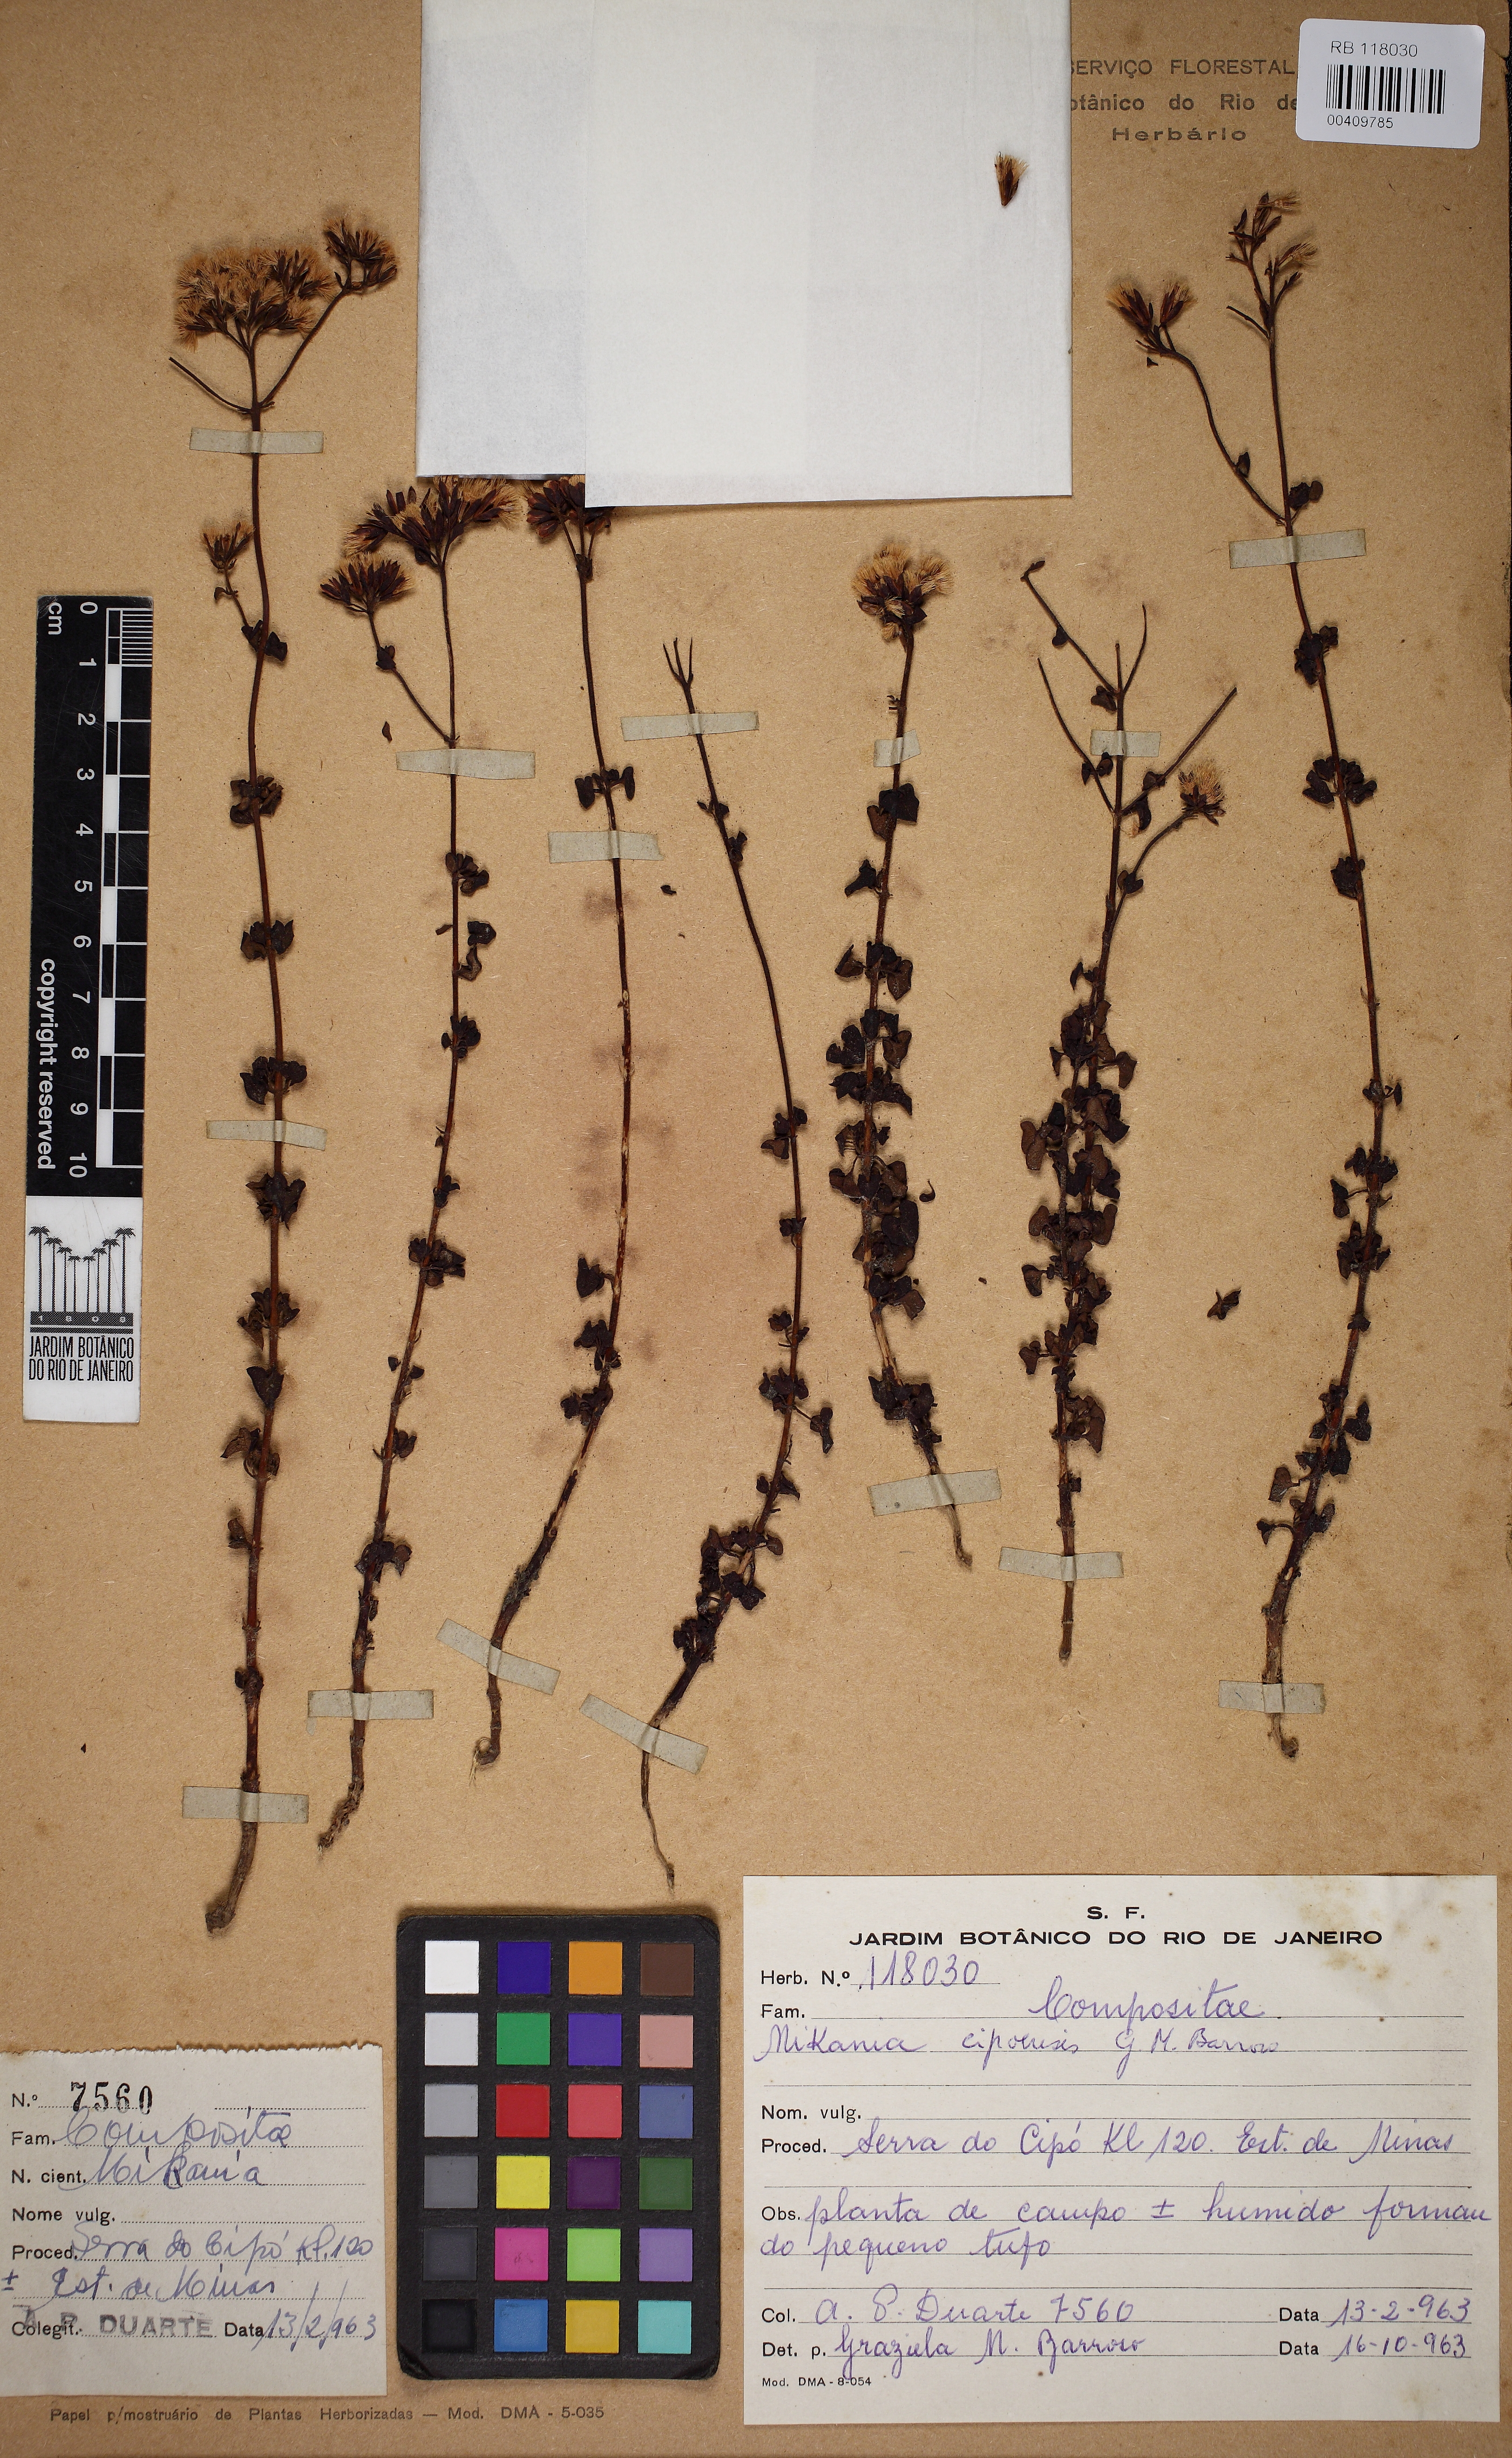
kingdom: Plantae
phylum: Tracheophyta
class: Magnoliopsida
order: Asterales
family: Asteraceae
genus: Mikania
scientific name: Mikania cipoensis
